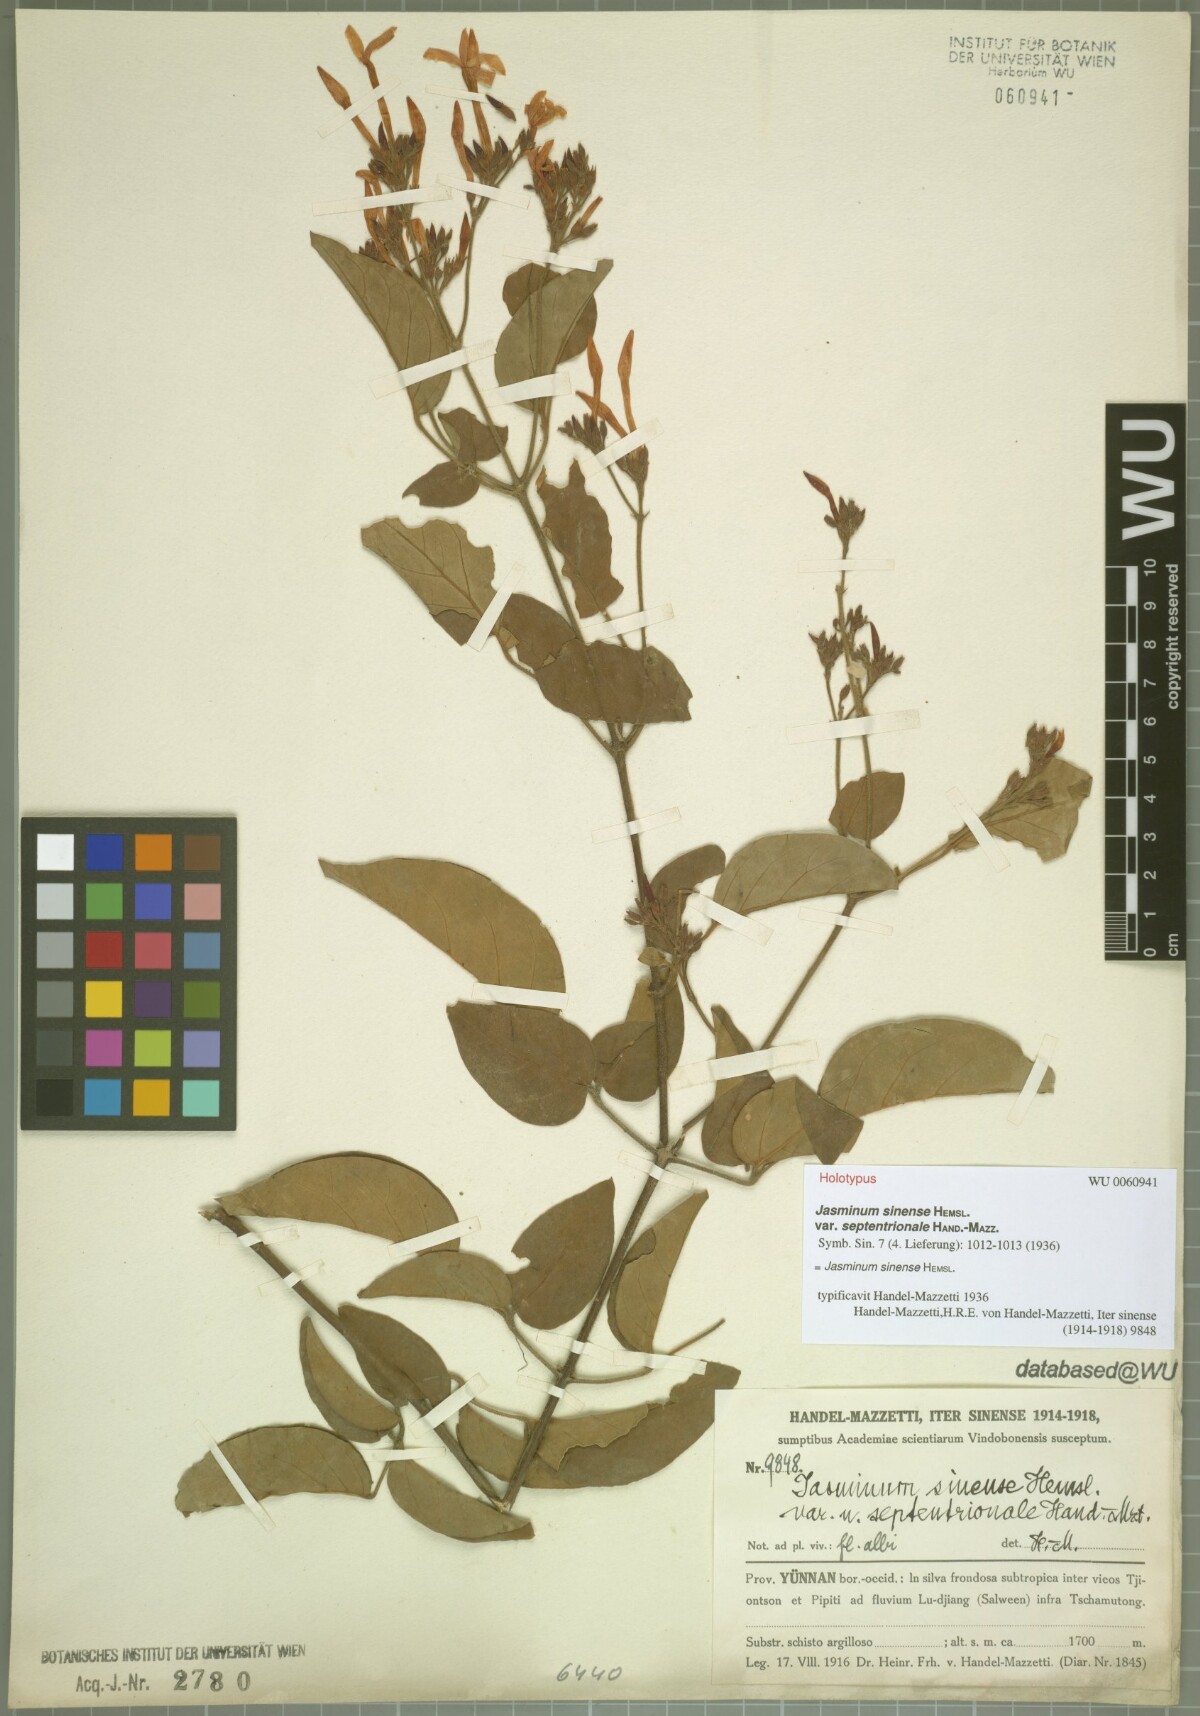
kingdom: Plantae
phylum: Tracheophyta
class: Magnoliopsida
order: Lamiales
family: Oleaceae
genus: Jasminum
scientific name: Jasminum sinense
